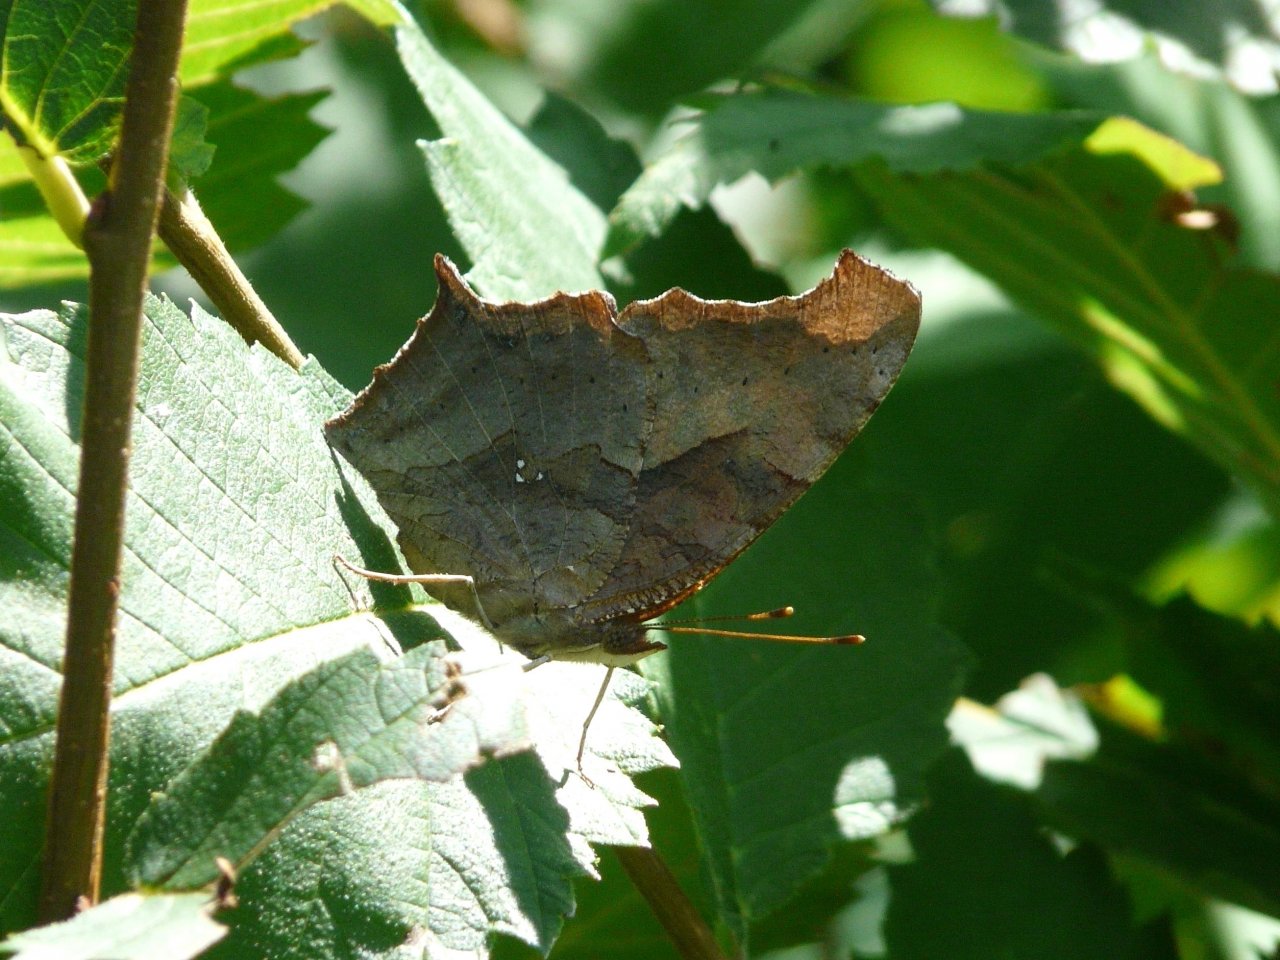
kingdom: Animalia
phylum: Arthropoda
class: Insecta
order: Lepidoptera
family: Nymphalidae
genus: Polygonia
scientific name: Polygonia interrogationis
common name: Question Mark
